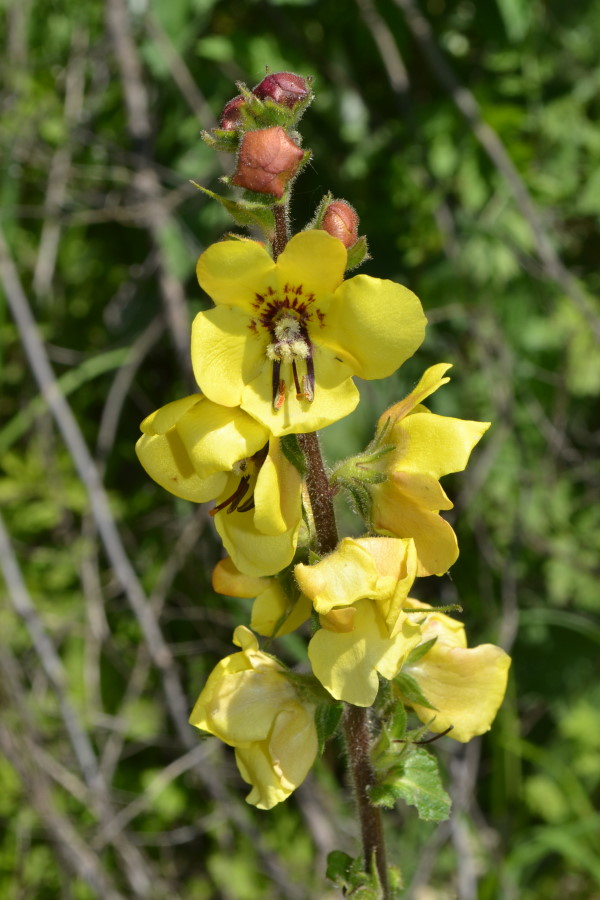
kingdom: Plantae
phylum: Tracheophyta
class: Magnoliopsida
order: Lamiales
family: Scrophulariaceae
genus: Verbascum
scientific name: Verbascum
